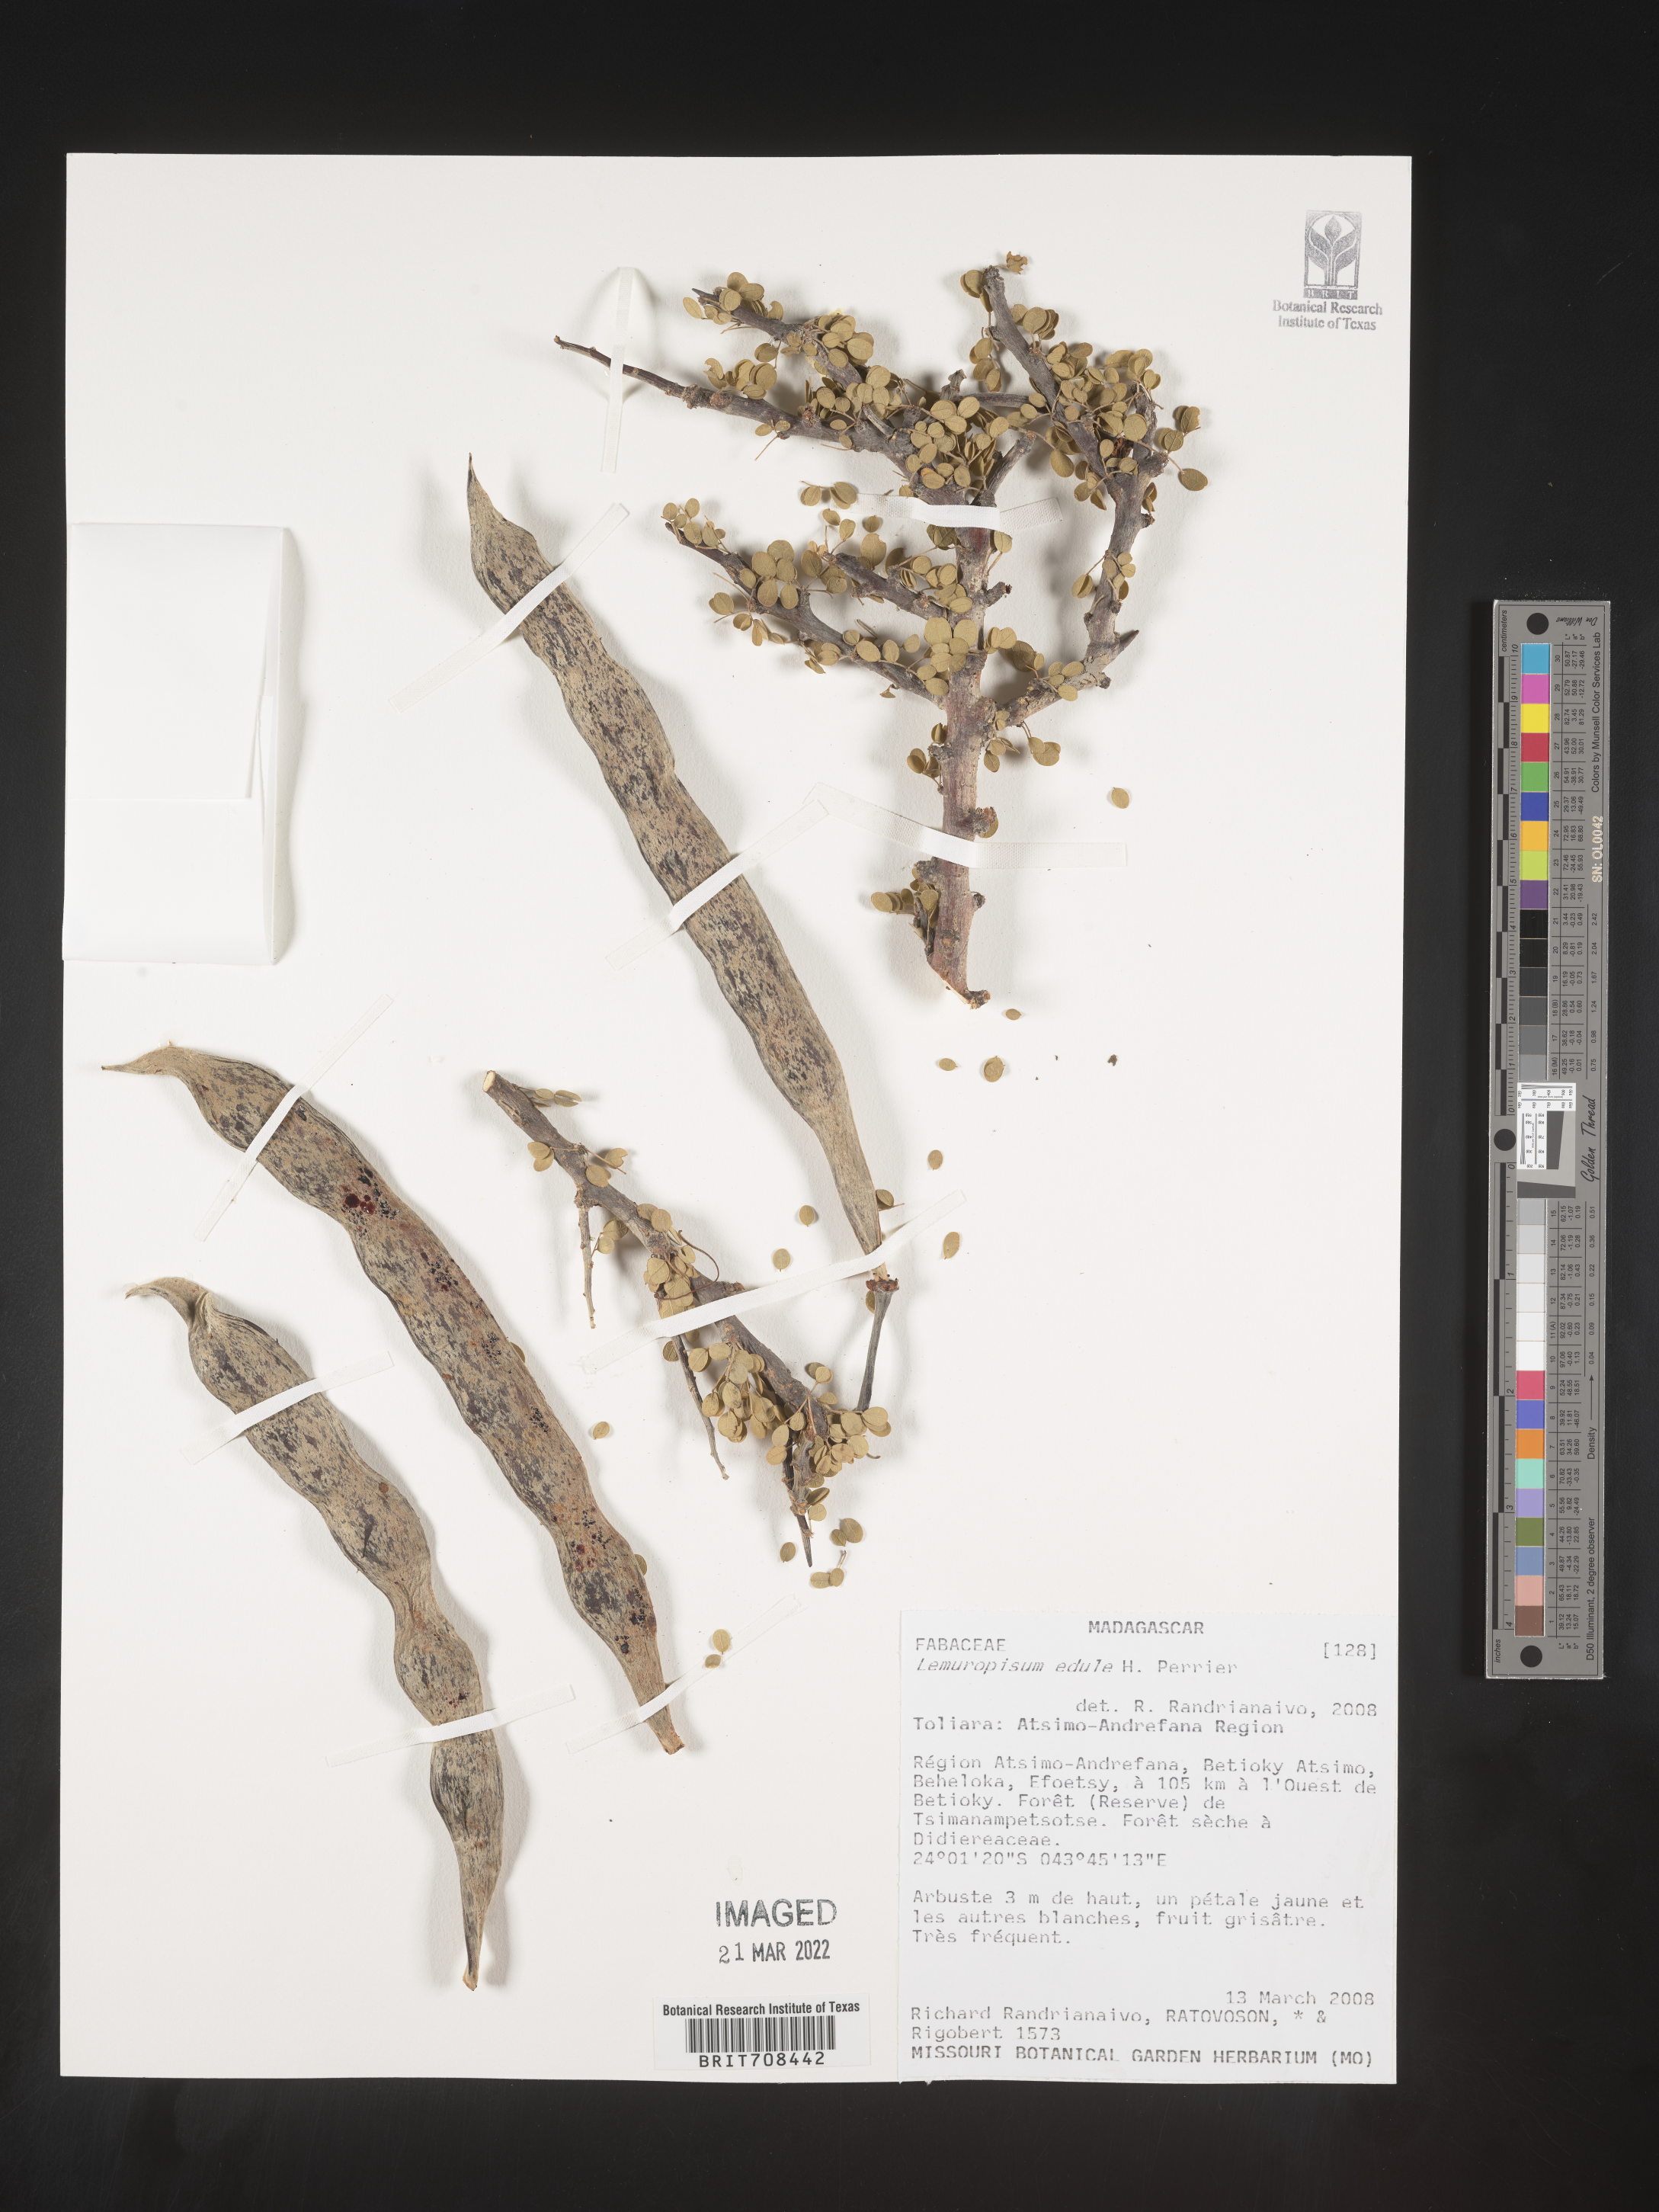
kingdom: Plantae
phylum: Tracheophyta
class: Magnoliopsida
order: Fabales
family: Fabaceae
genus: Delonix
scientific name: Delonix
